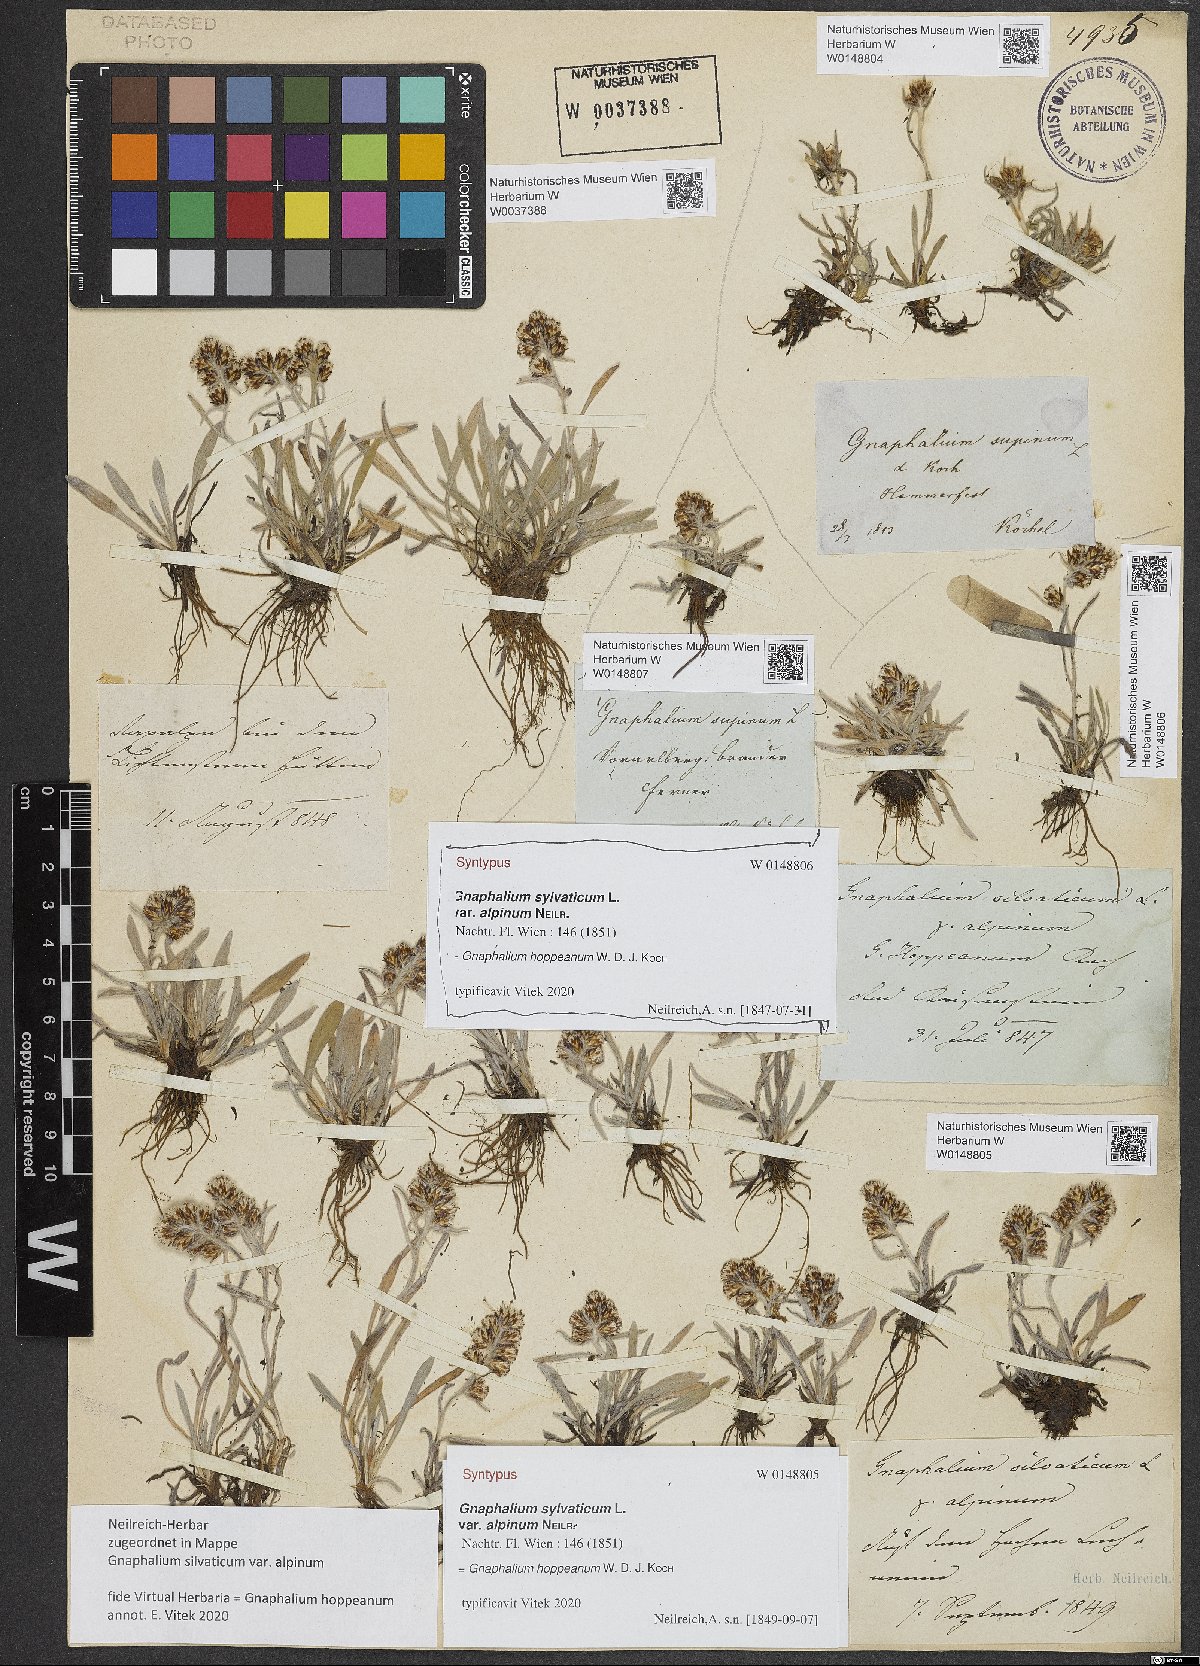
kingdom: Plantae
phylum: Tracheophyta
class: Magnoliopsida
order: Asterales
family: Asteraceae
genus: Gnaphalium
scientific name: Gnaphalium sylvaticum
